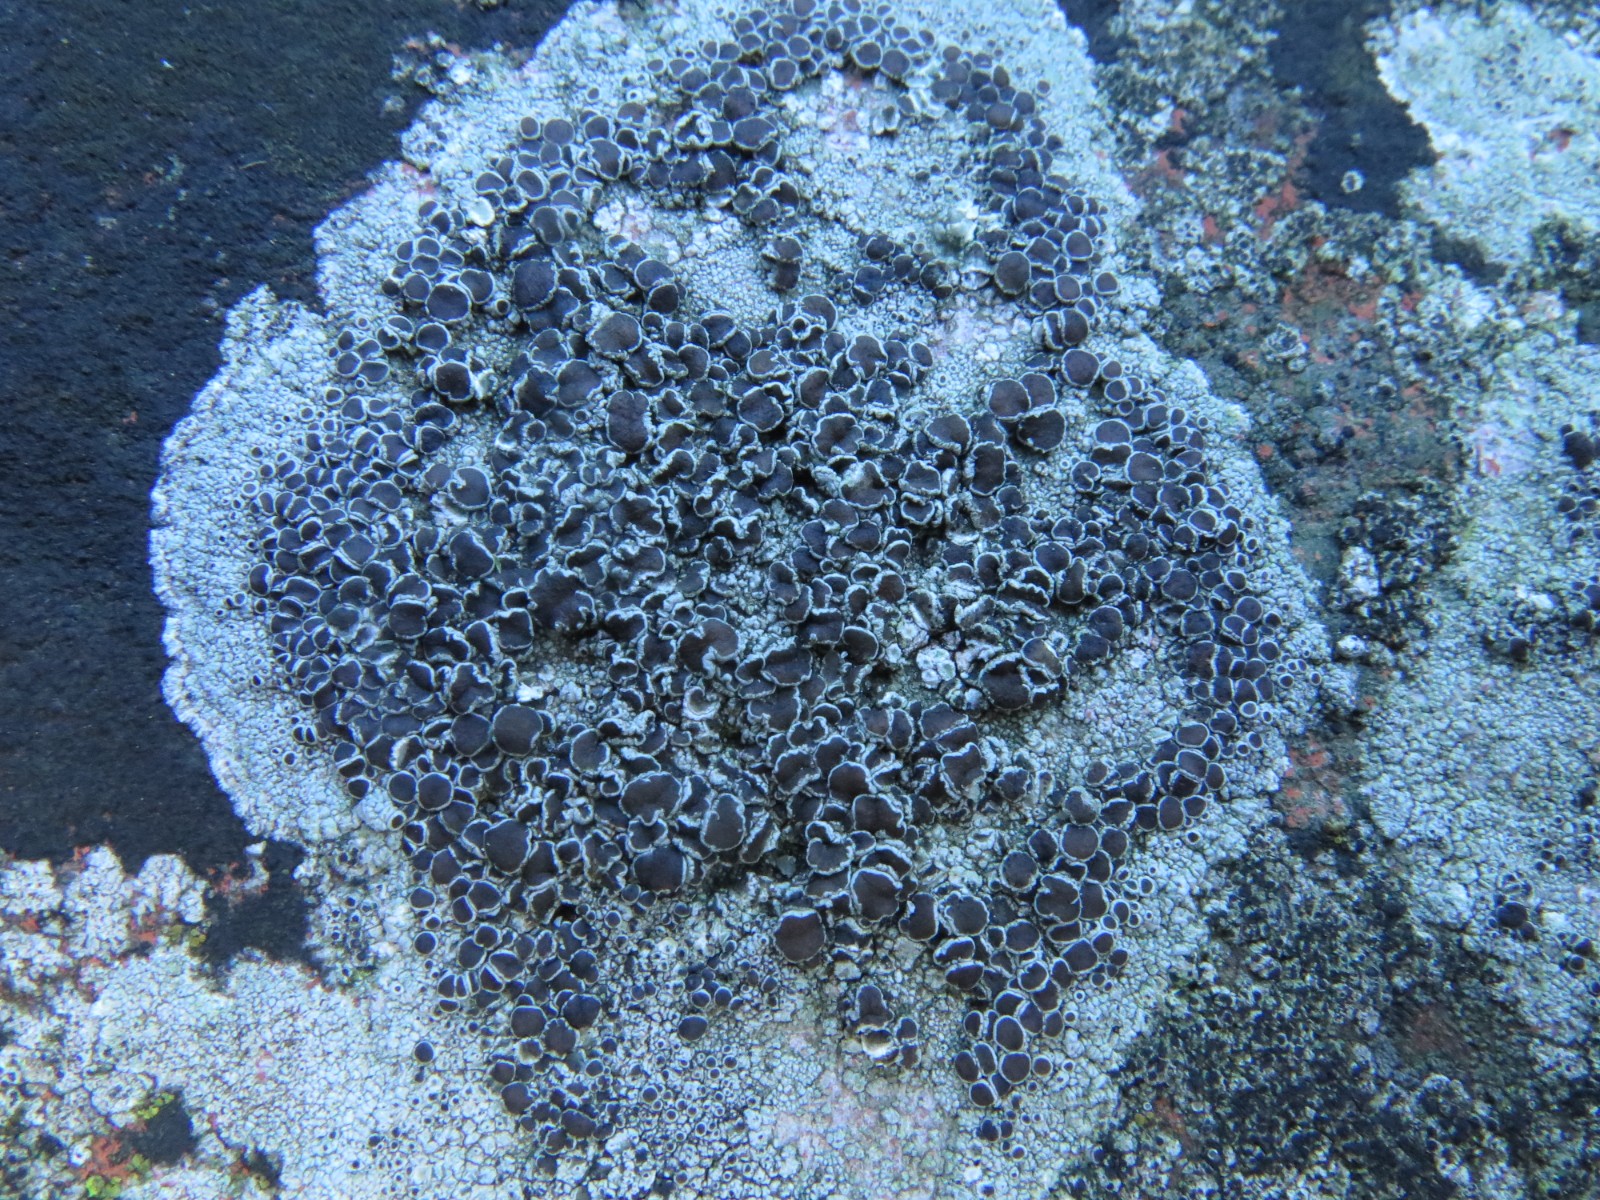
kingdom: Fungi
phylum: Ascomycota
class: Lecanoromycetes
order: Lecanorales
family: Lecanoraceae
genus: Lecanora
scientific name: Lecanora campestris
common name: mur-kantskivelav
